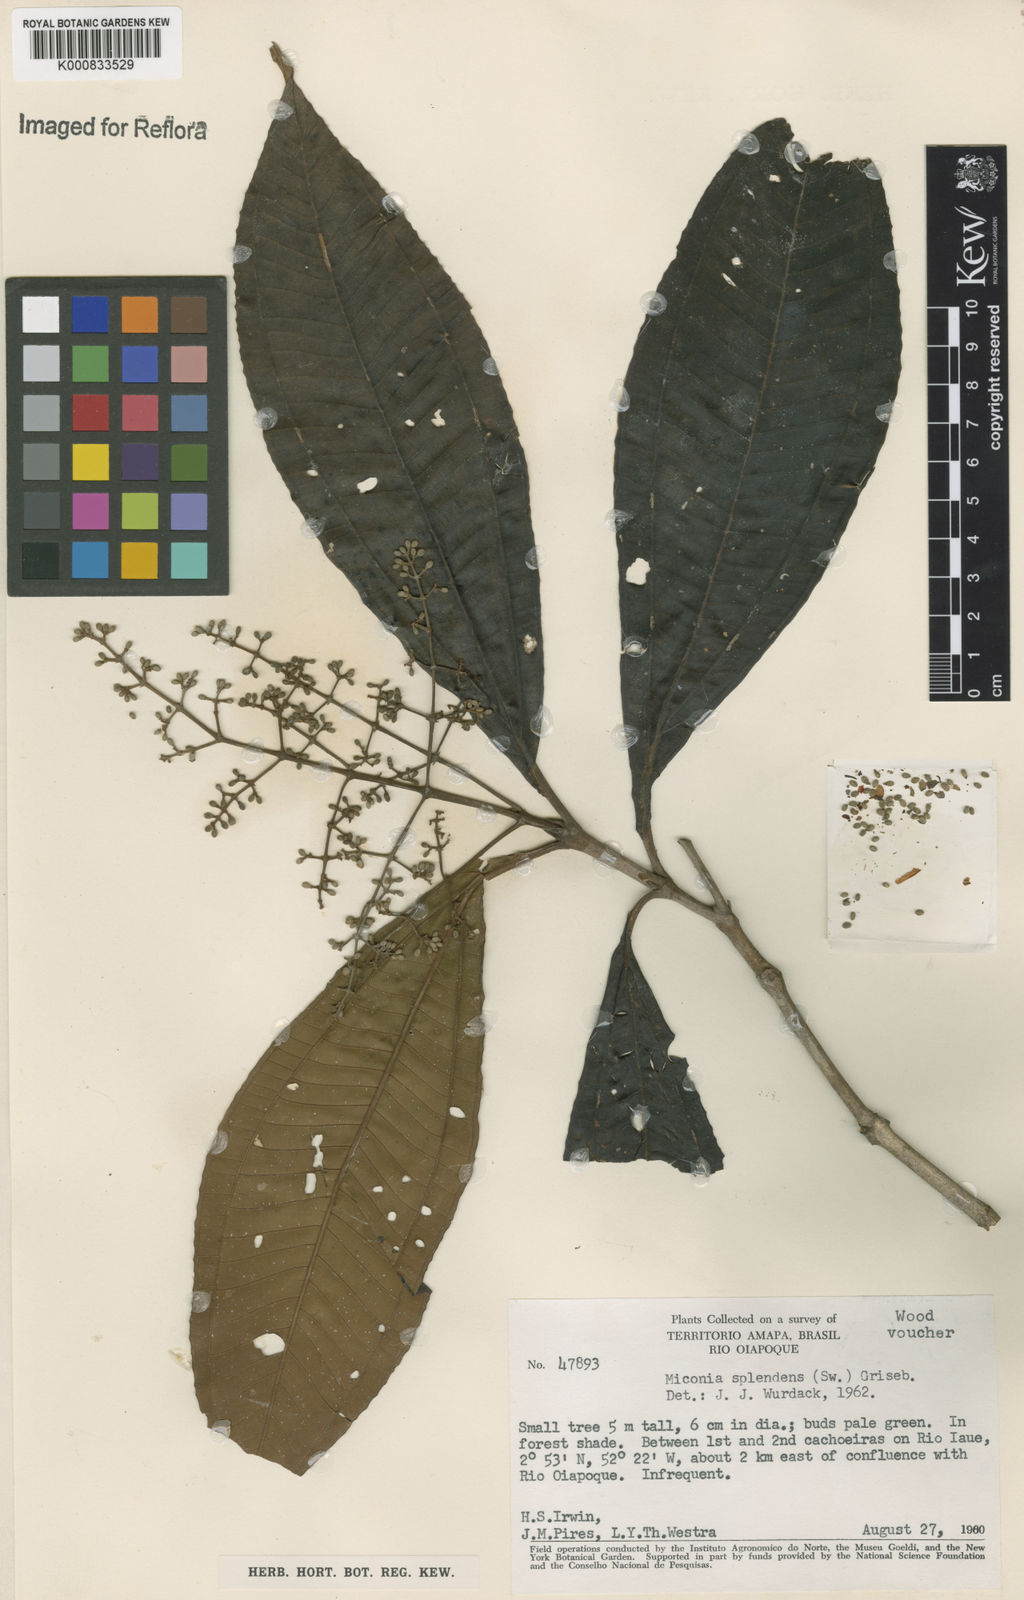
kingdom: Plantae
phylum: Tracheophyta
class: Magnoliopsida
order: Myrtales
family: Melastomataceae
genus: Miconia
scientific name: Miconia prasina
